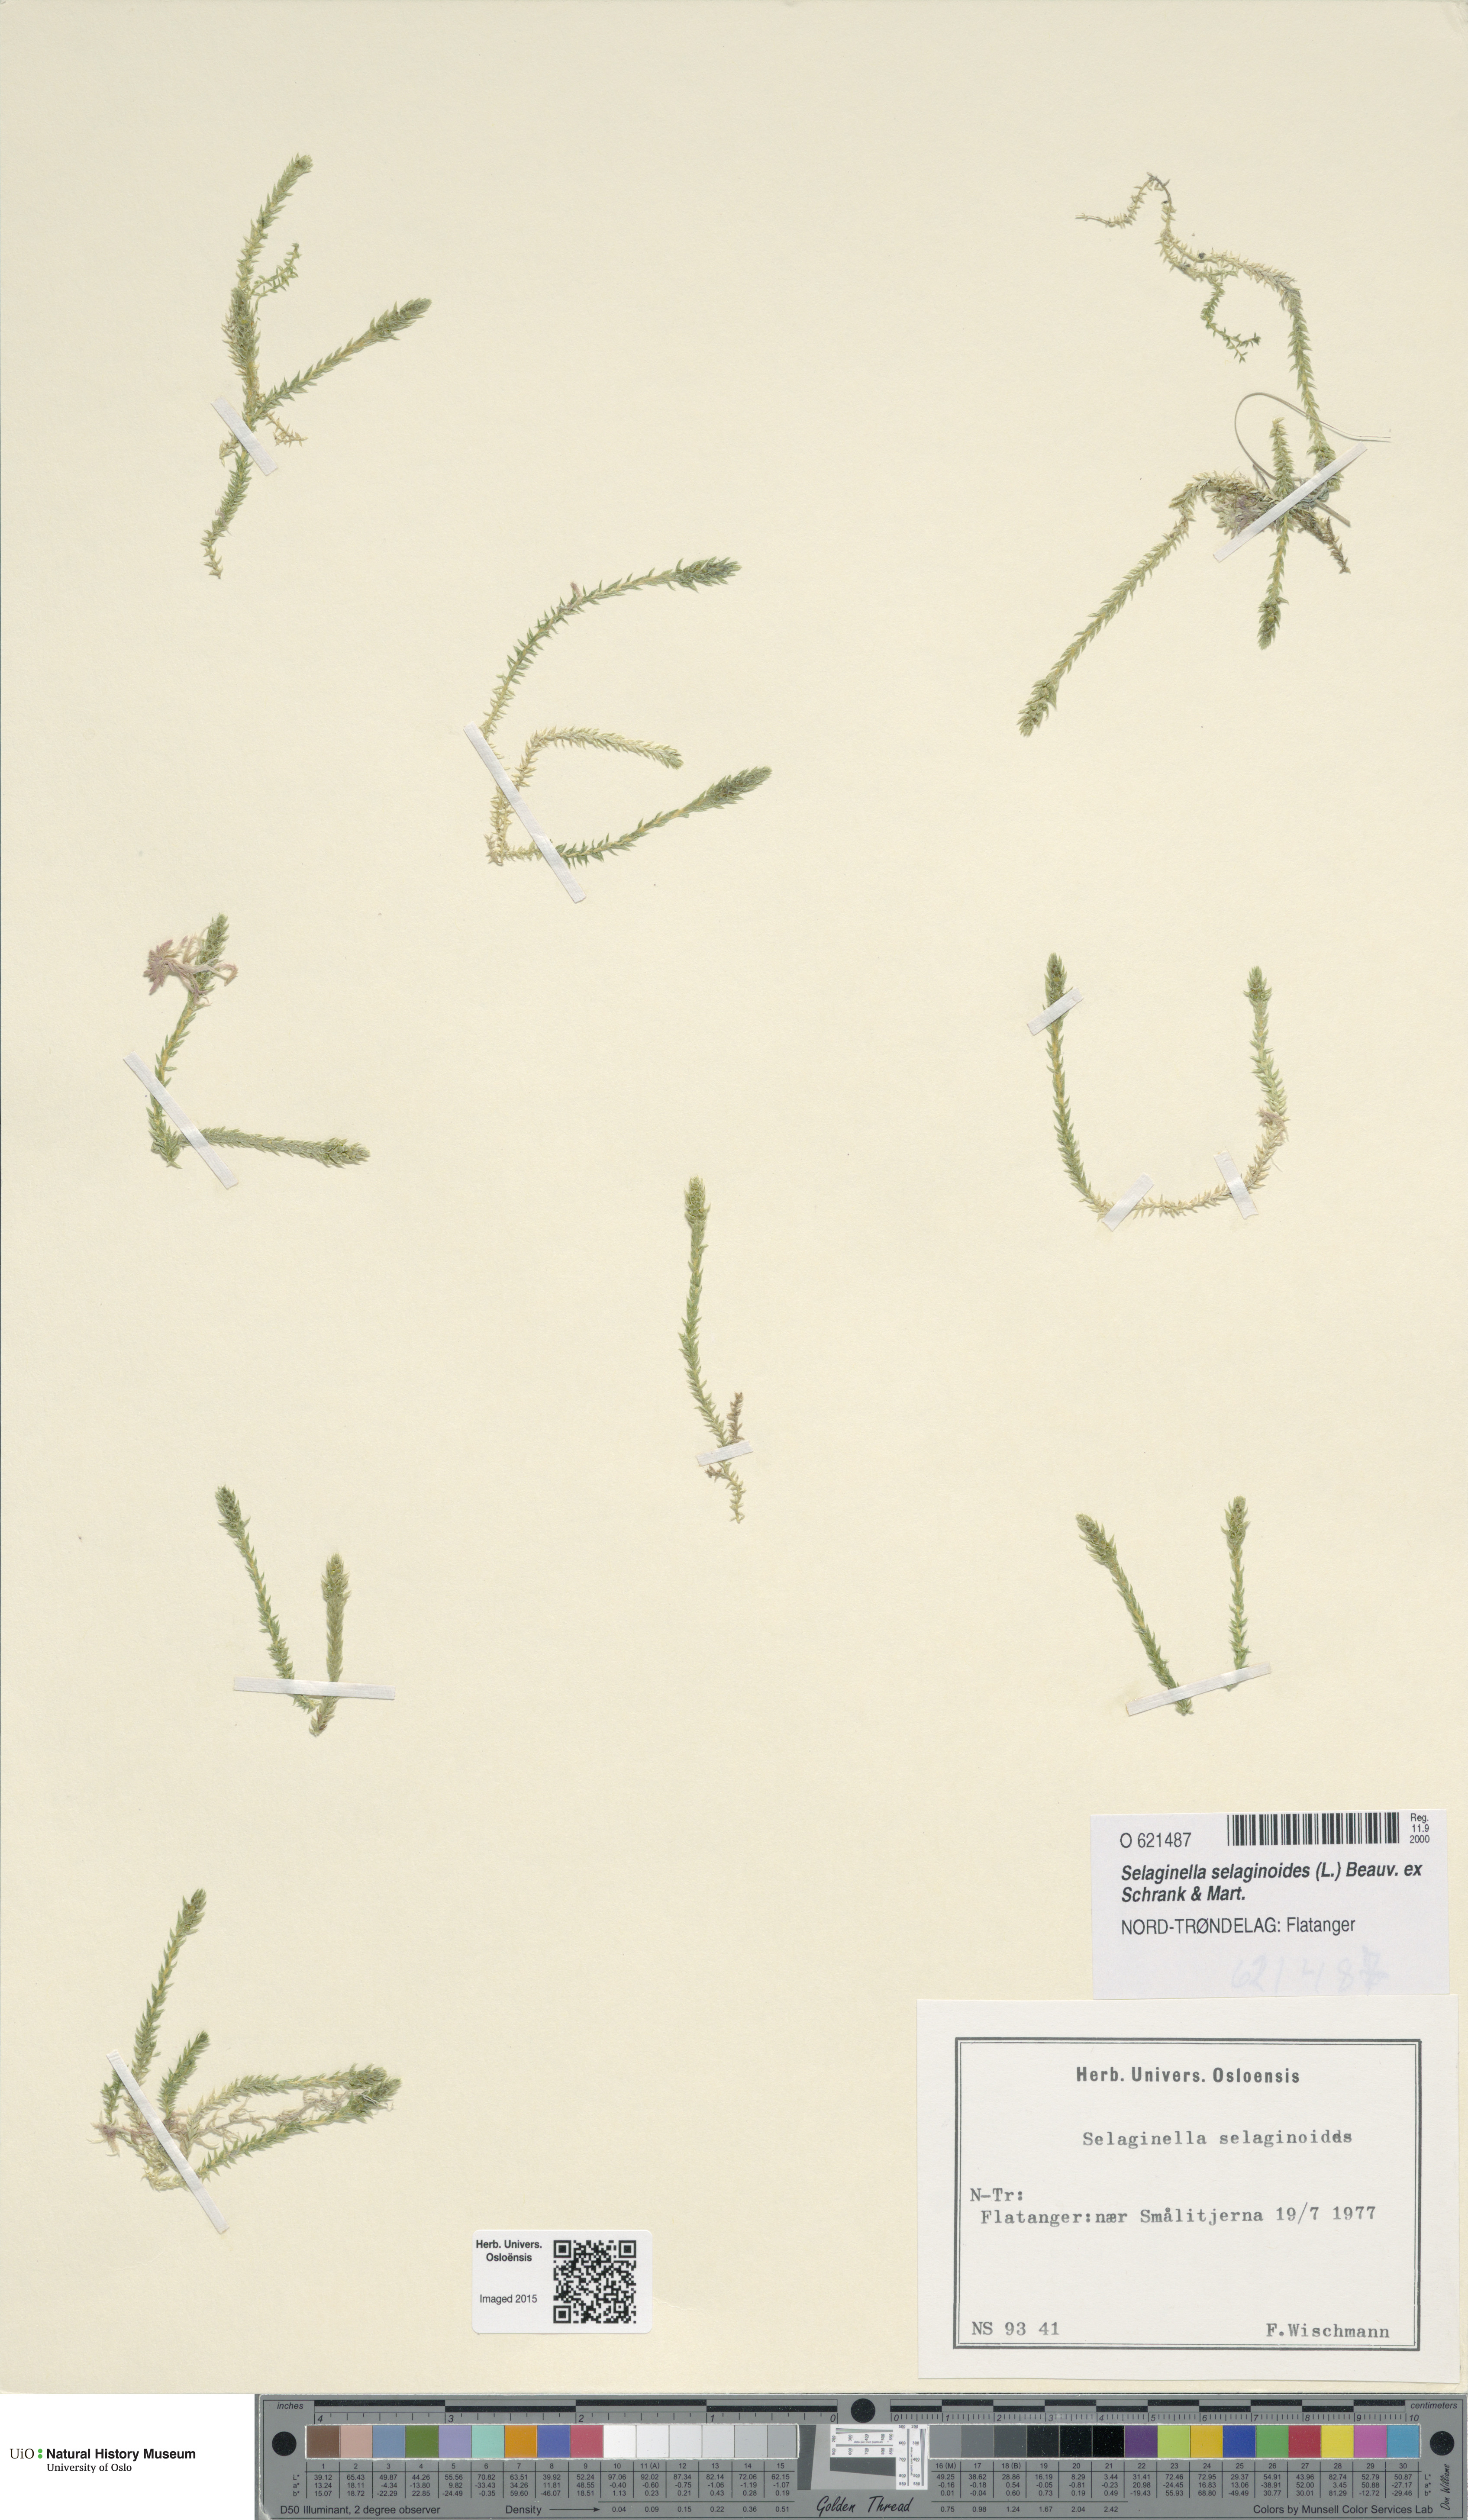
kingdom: Plantae
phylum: Tracheophyta
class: Lycopodiopsida
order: Selaginellales
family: Selaginellaceae
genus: Selaginella
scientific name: Selaginella selaginoides
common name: Prickly mountain-moss
